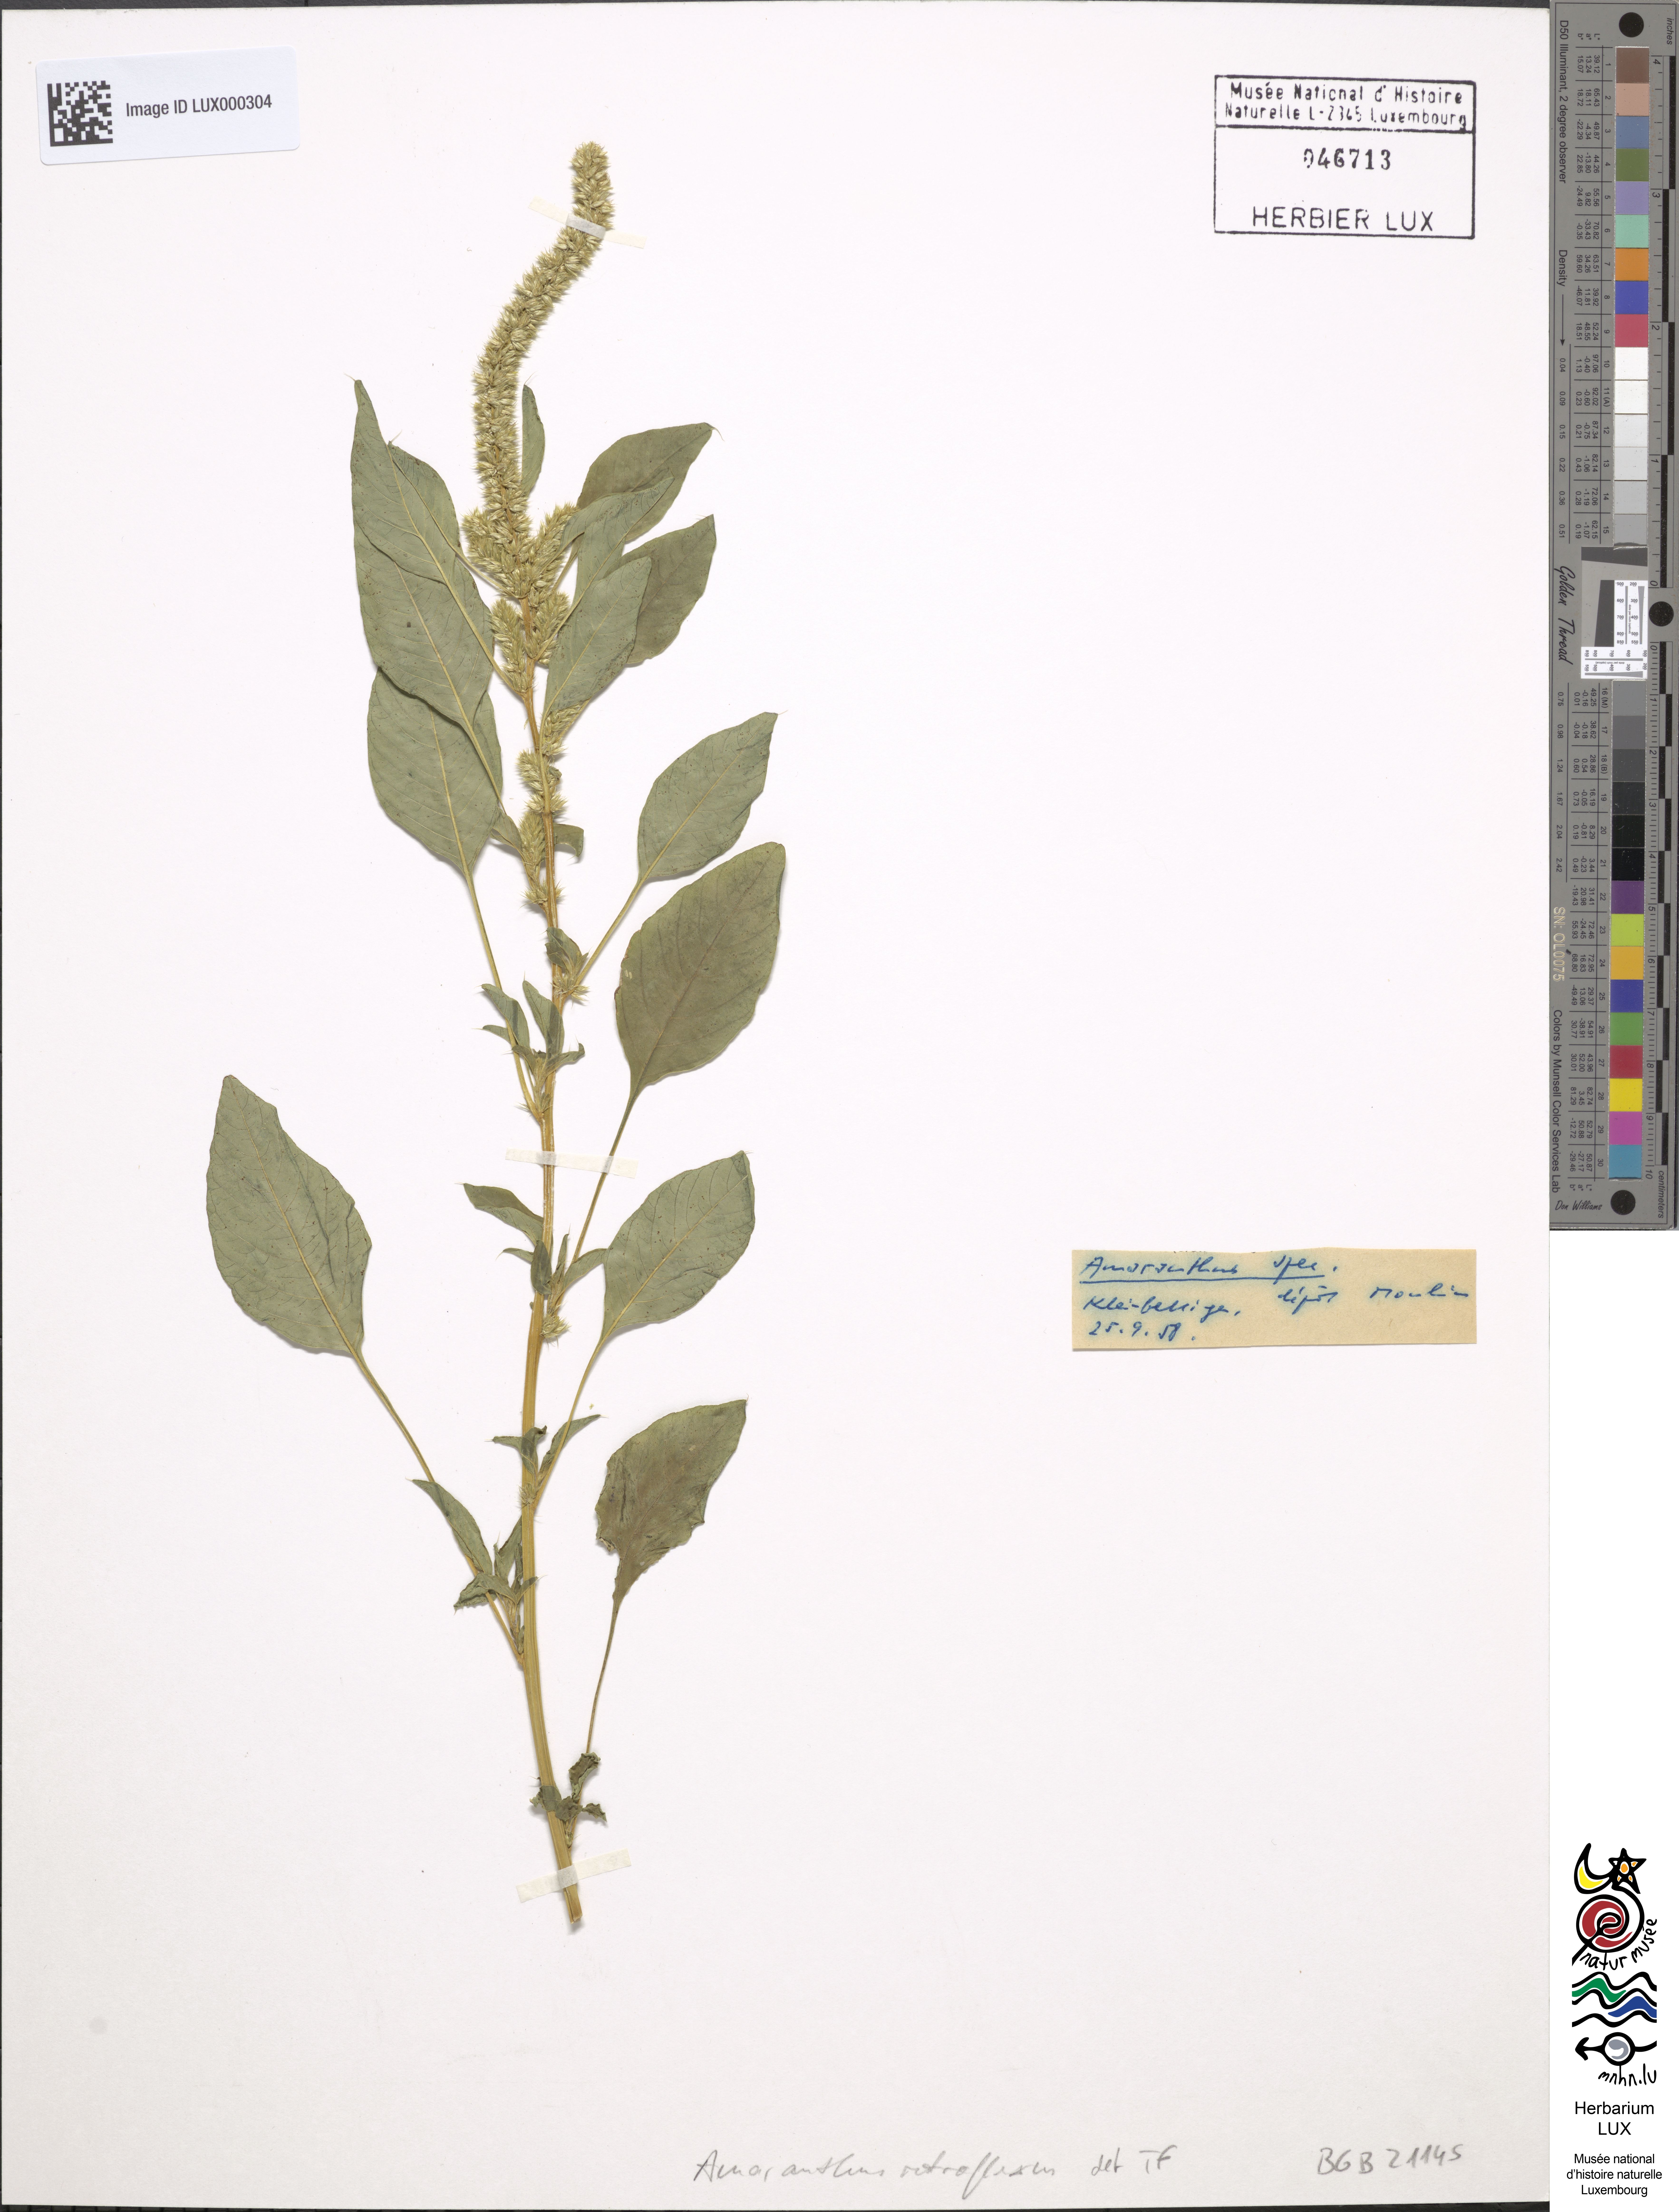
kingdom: Plantae
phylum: Tracheophyta
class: Magnoliopsida
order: Caryophyllales
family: Amaranthaceae
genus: Amaranthus
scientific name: Amaranthus retroflexus
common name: Redroot amaranth
